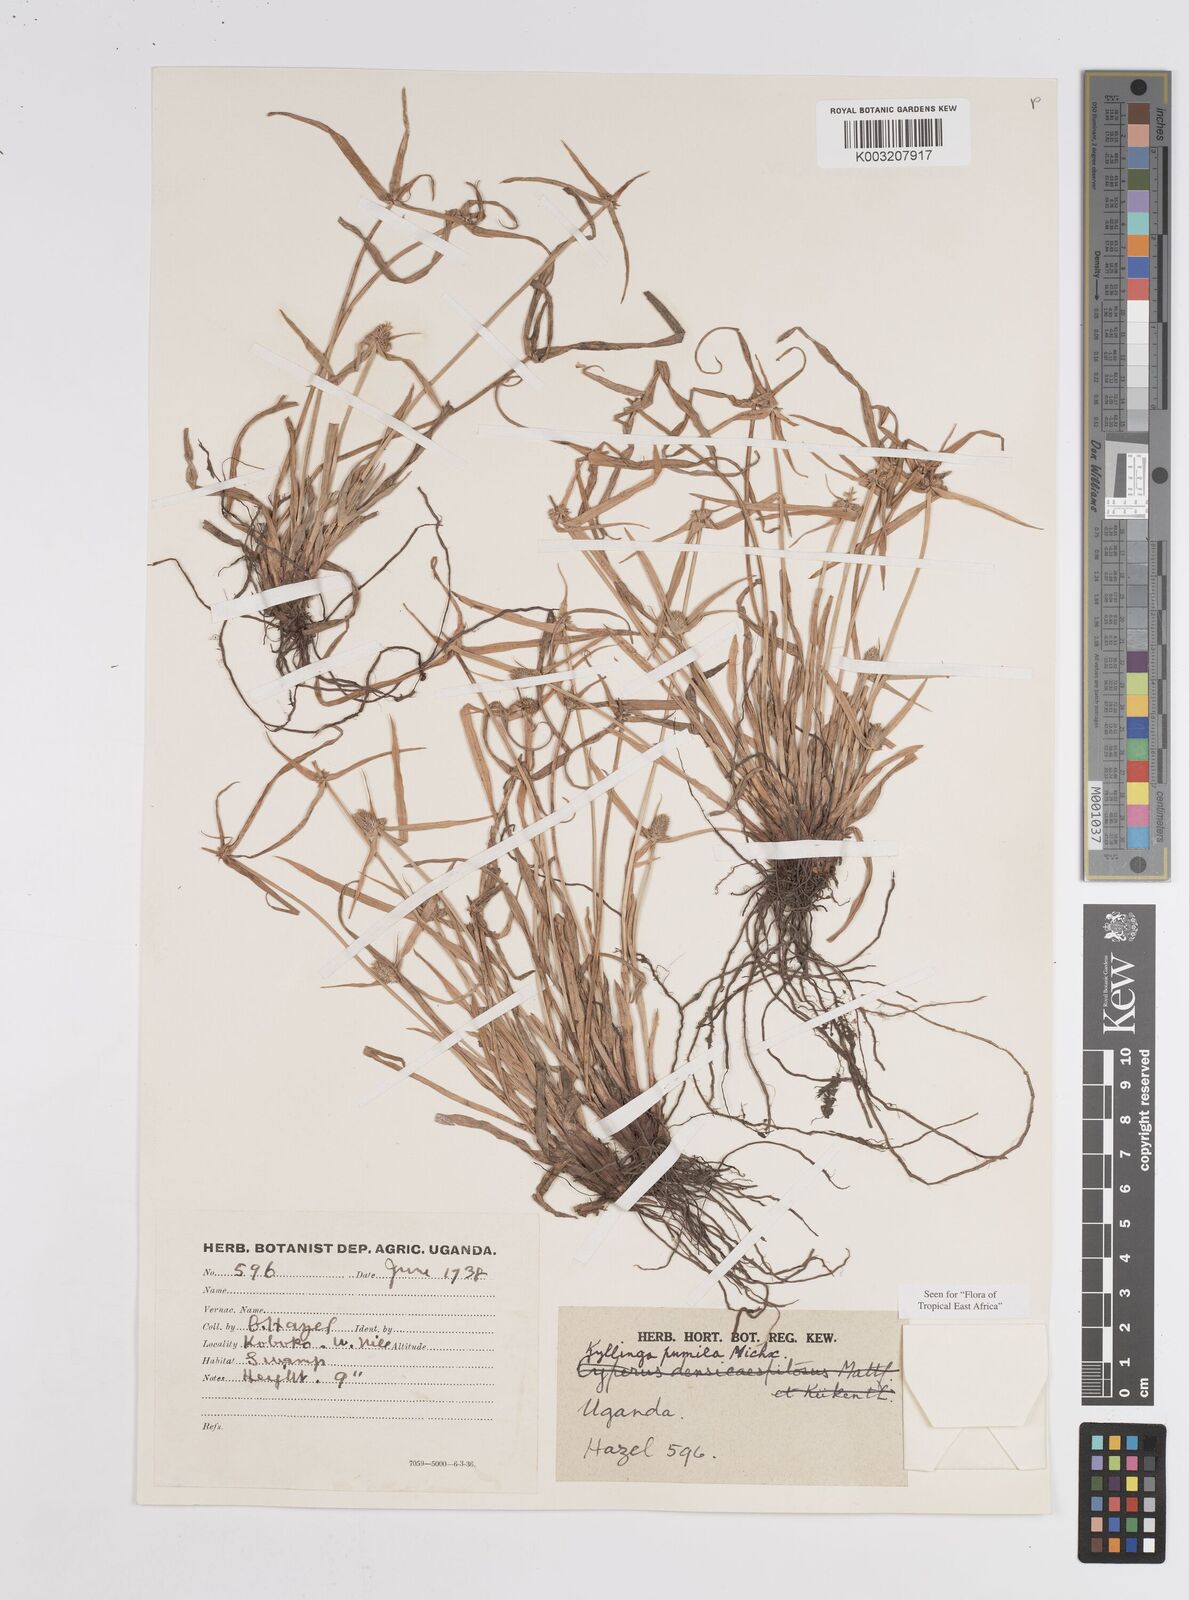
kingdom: Plantae
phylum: Tracheophyta
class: Liliopsida
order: Poales
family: Cyperaceae
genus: Cyperus
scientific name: Cyperus
